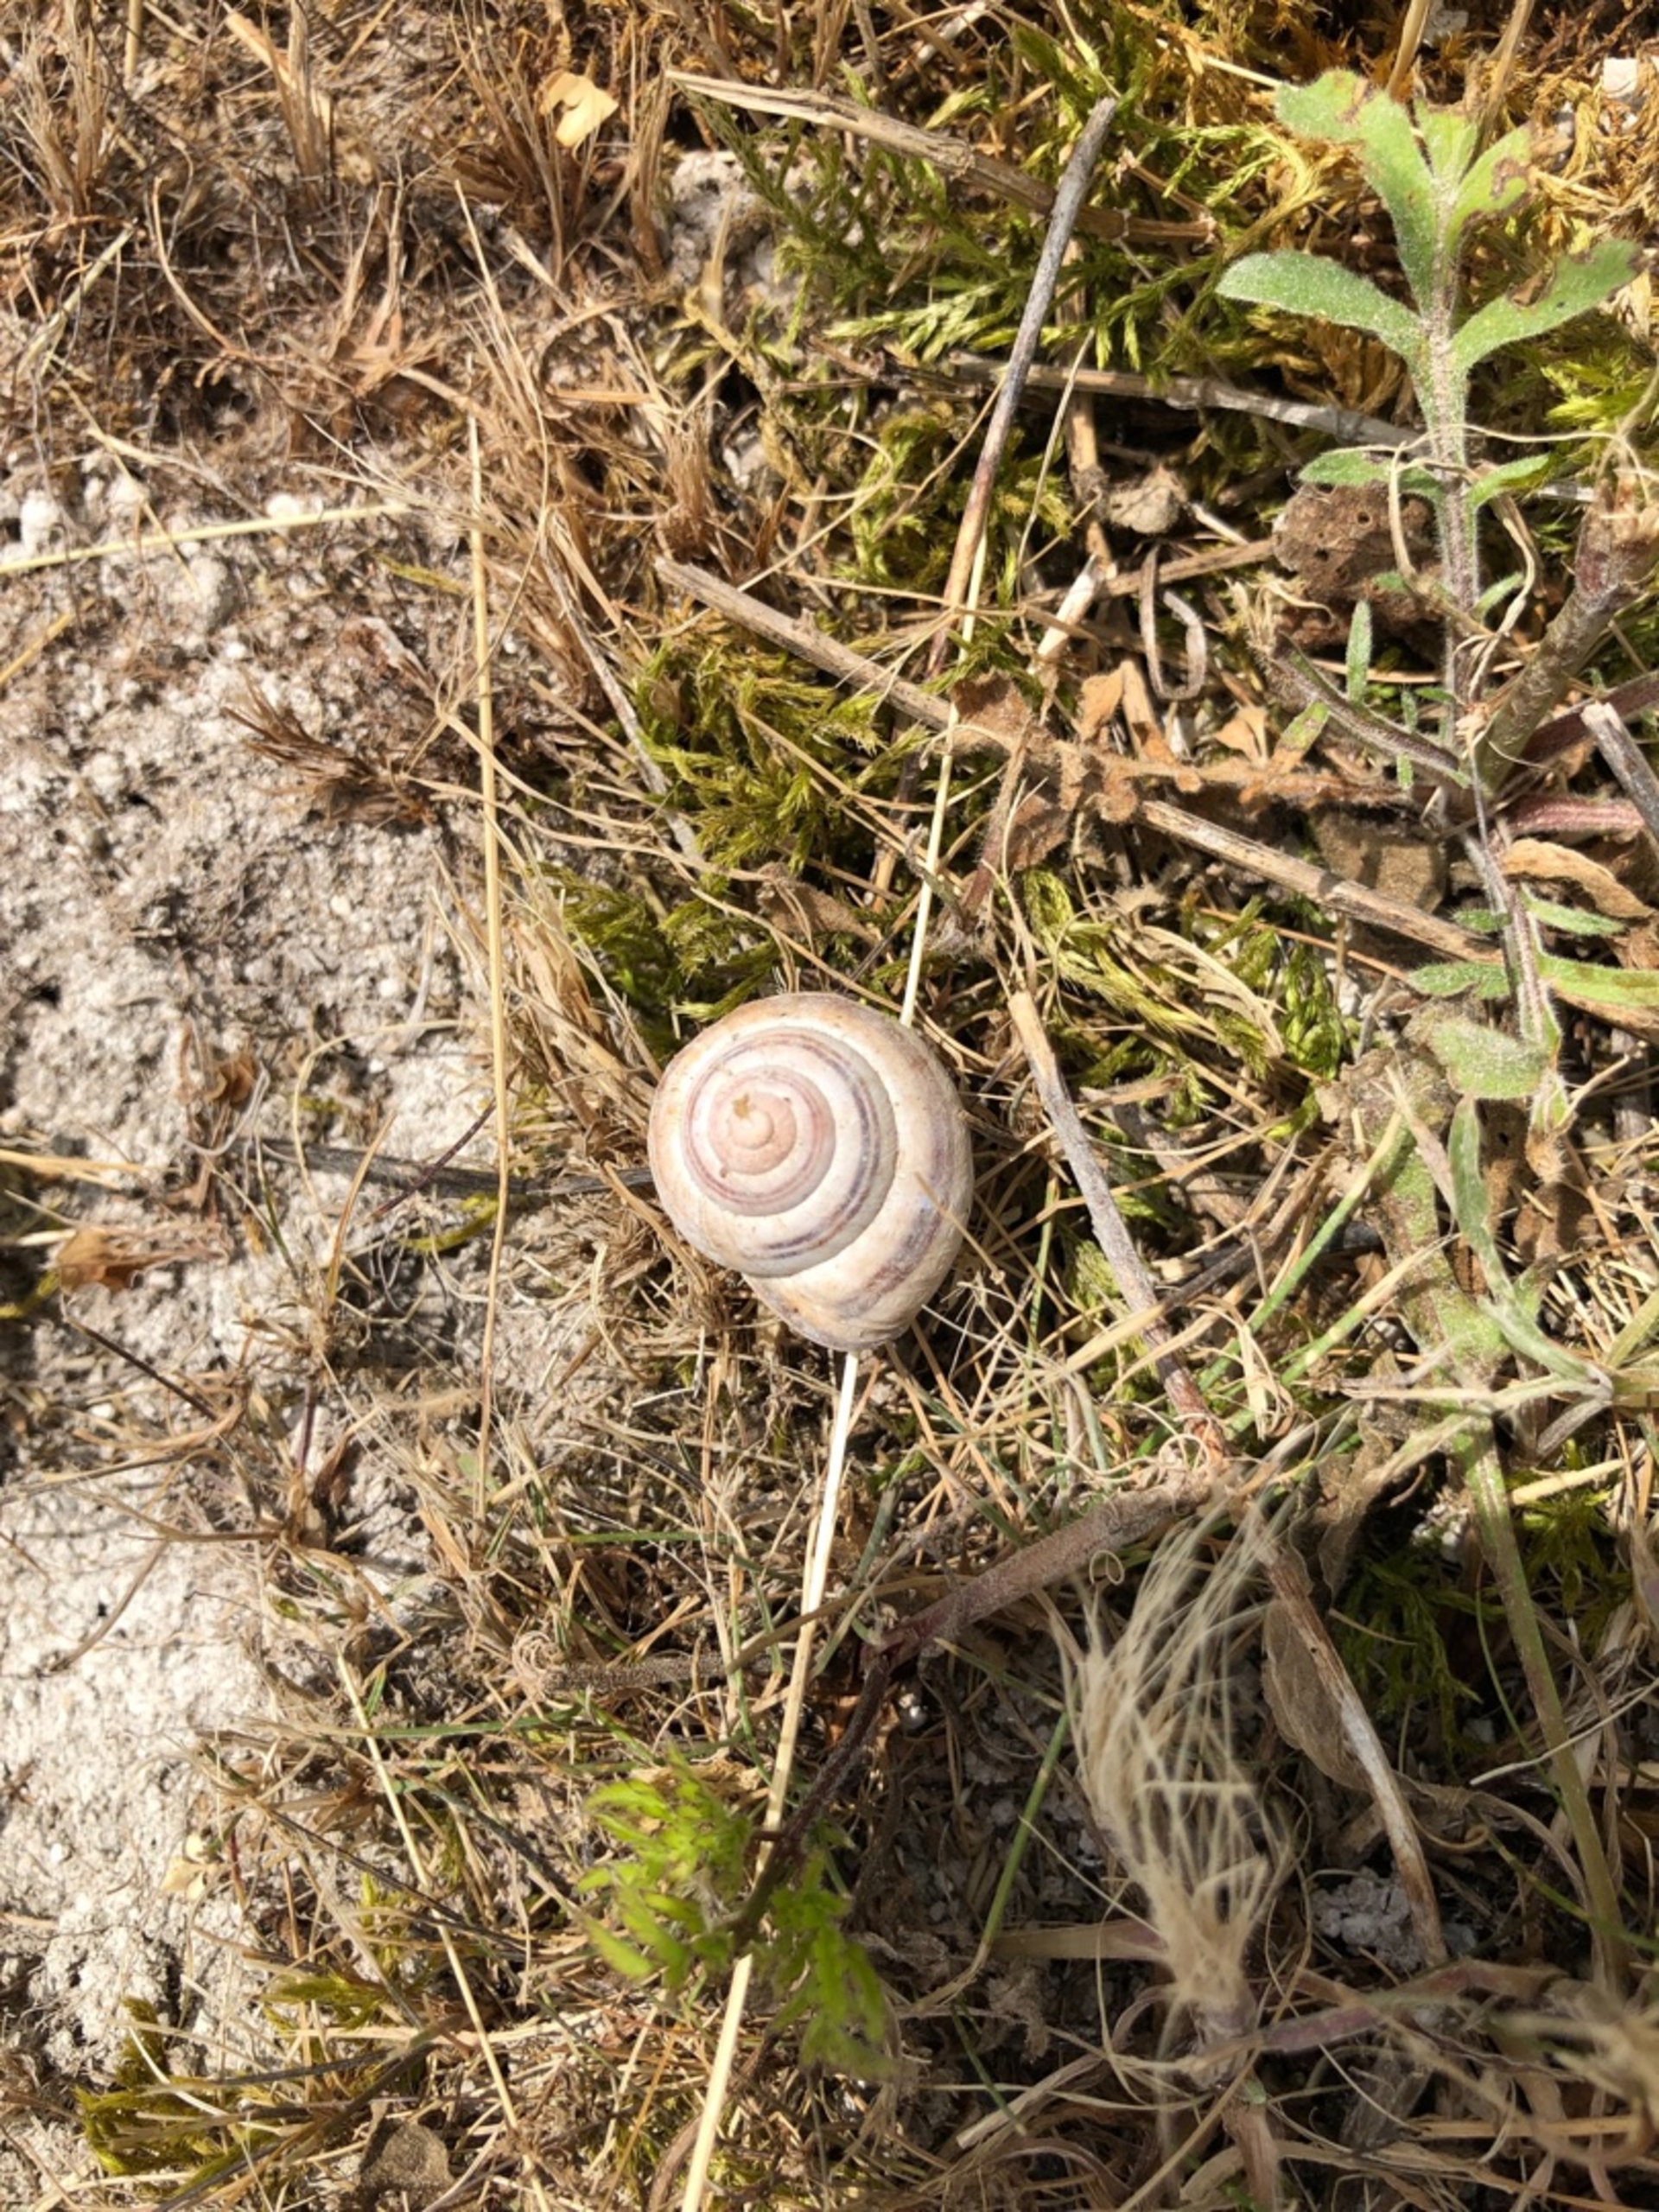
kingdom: Animalia
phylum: Mollusca
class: Gastropoda
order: Stylommatophora
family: Helicidae
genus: Cepaea
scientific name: Cepaea nemoralis
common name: Lundsnegl
